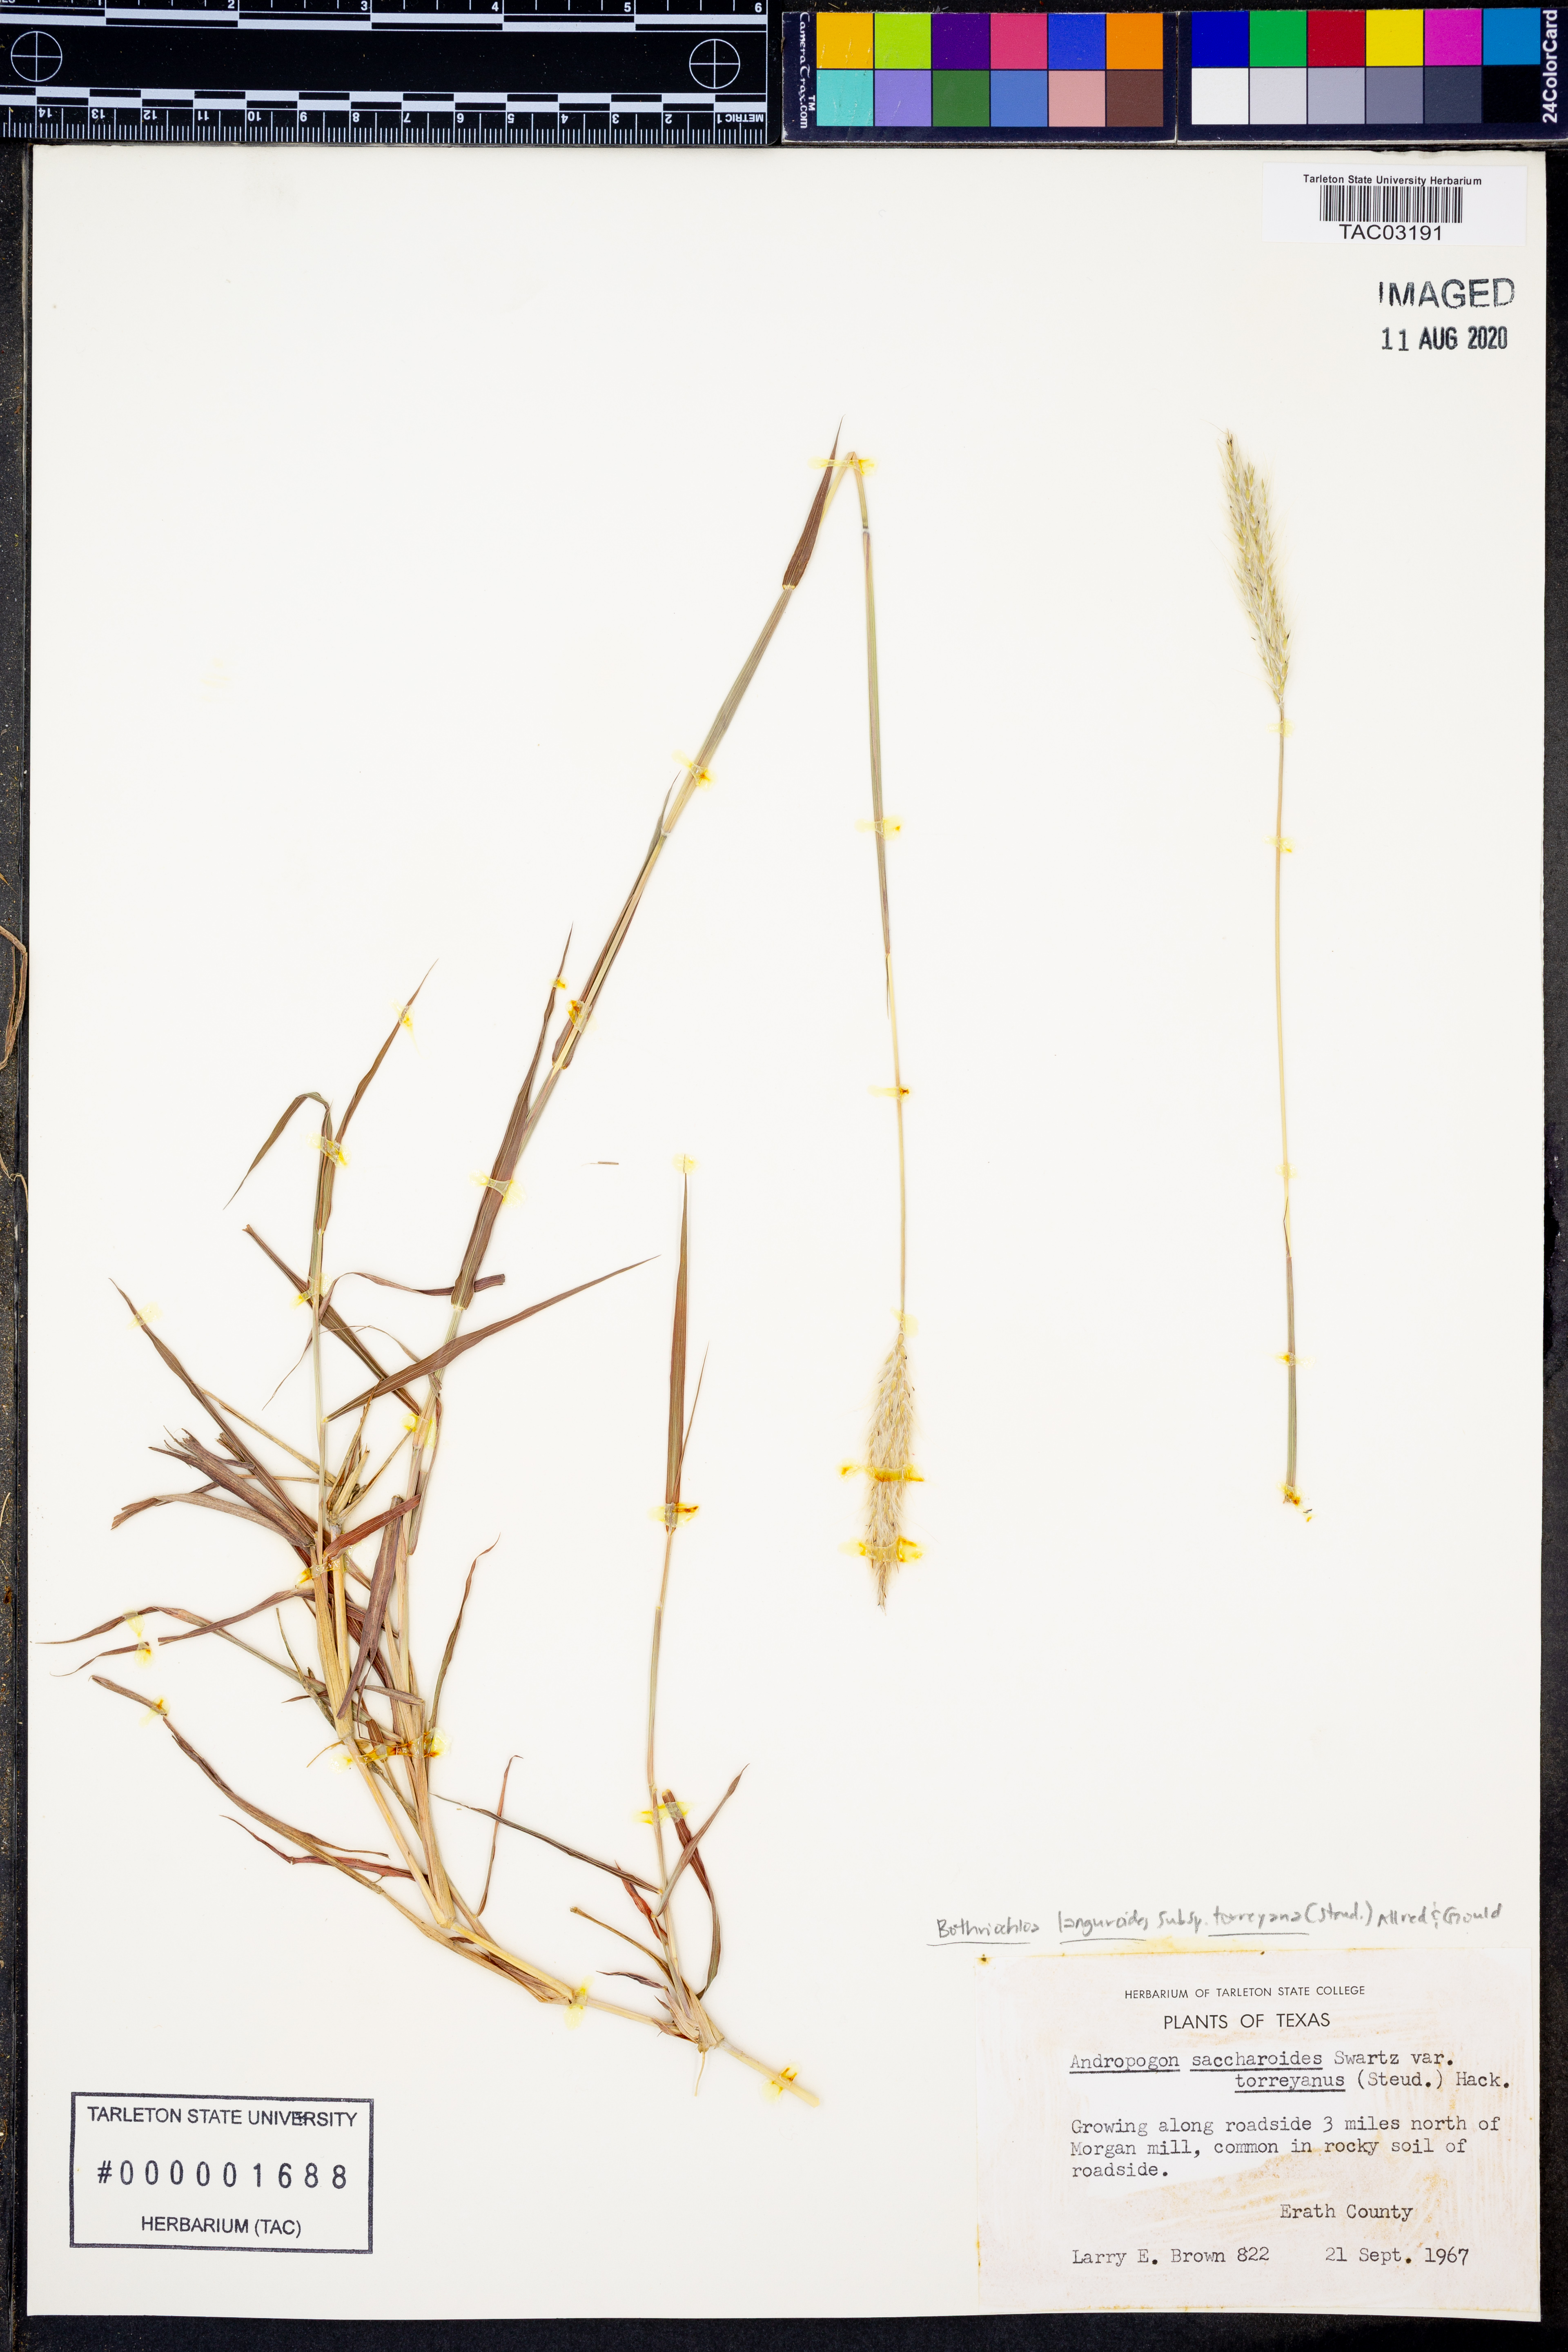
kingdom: Plantae
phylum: Tracheophyta
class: Liliopsida
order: Poales
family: Poaceae
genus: Bothriochloa
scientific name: Bothriochloa torreyana
